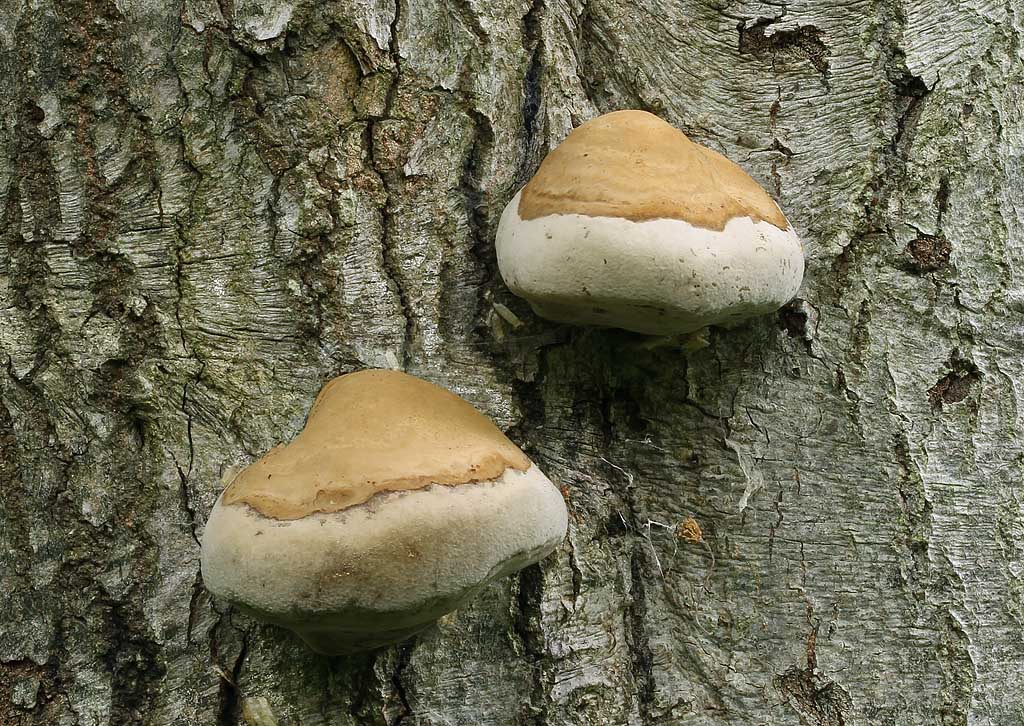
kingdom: Fungi
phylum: Basidiomycota
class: Agaricomycetes
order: Polyporales
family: Polyporaceae
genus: Fomes
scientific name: Fomes fomentarius
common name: tøndersvamp
